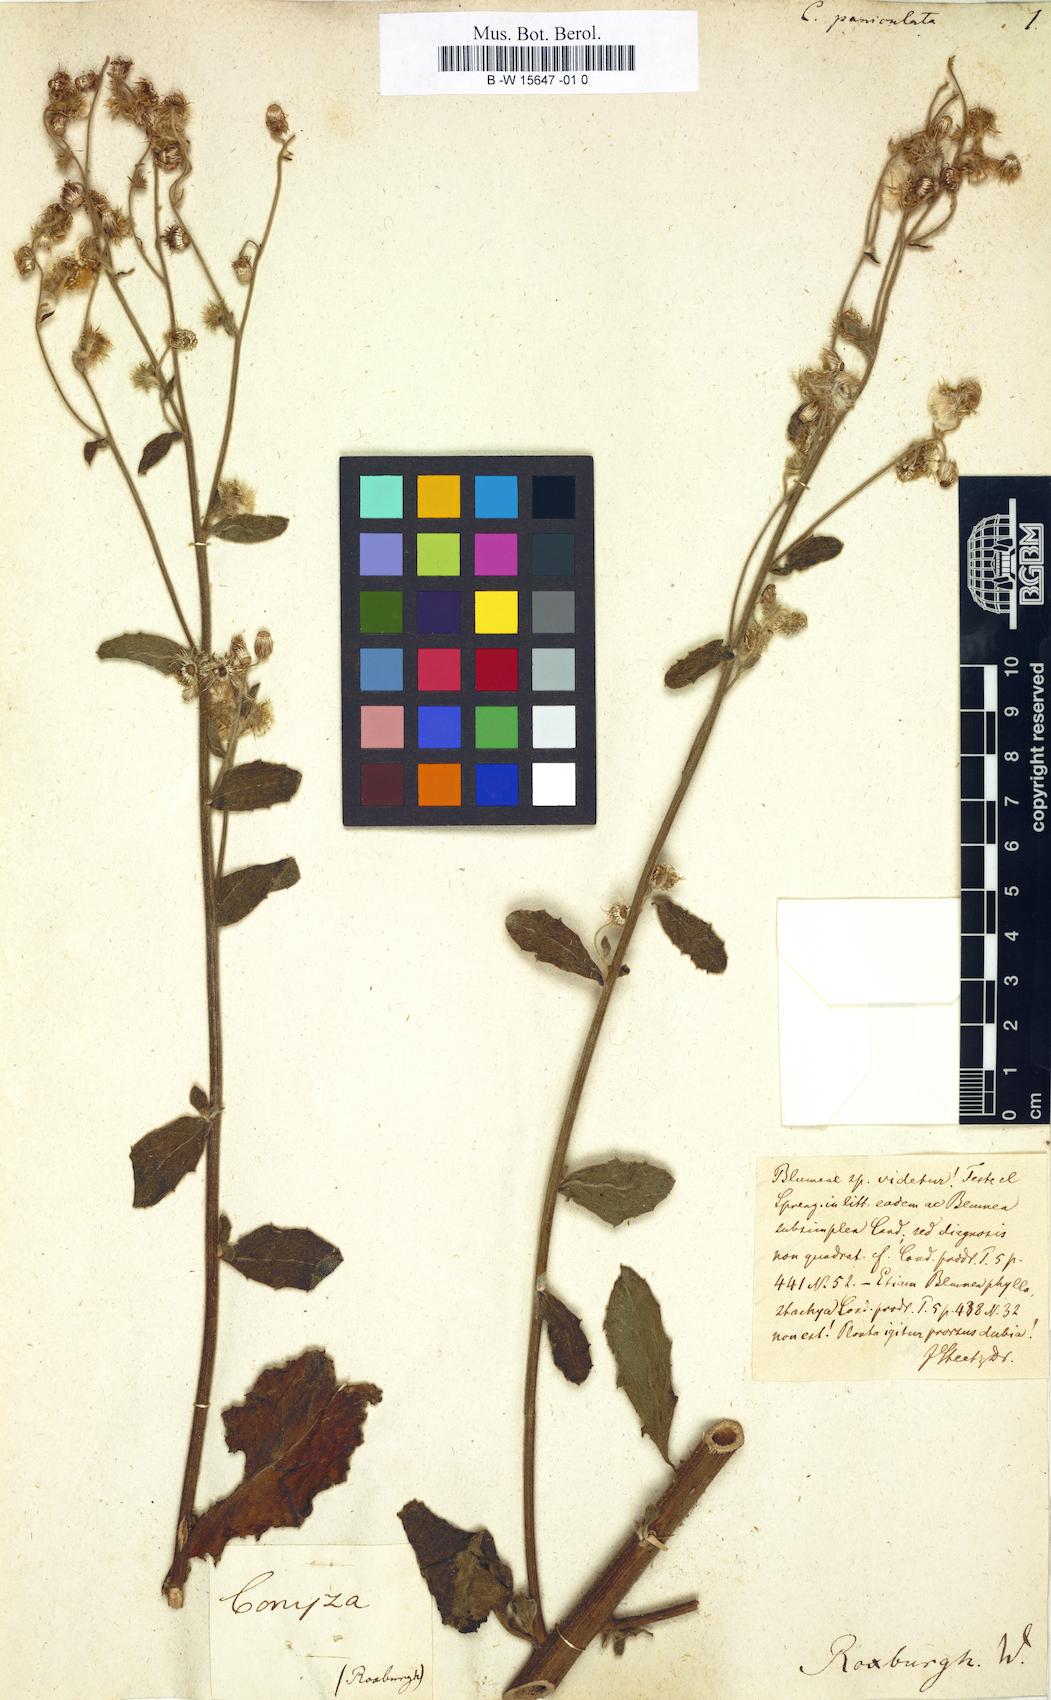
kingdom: Plantae
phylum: Tracheophyta
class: Magnoliopsida
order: Asterales
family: Asteraceae
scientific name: Asteraceae
